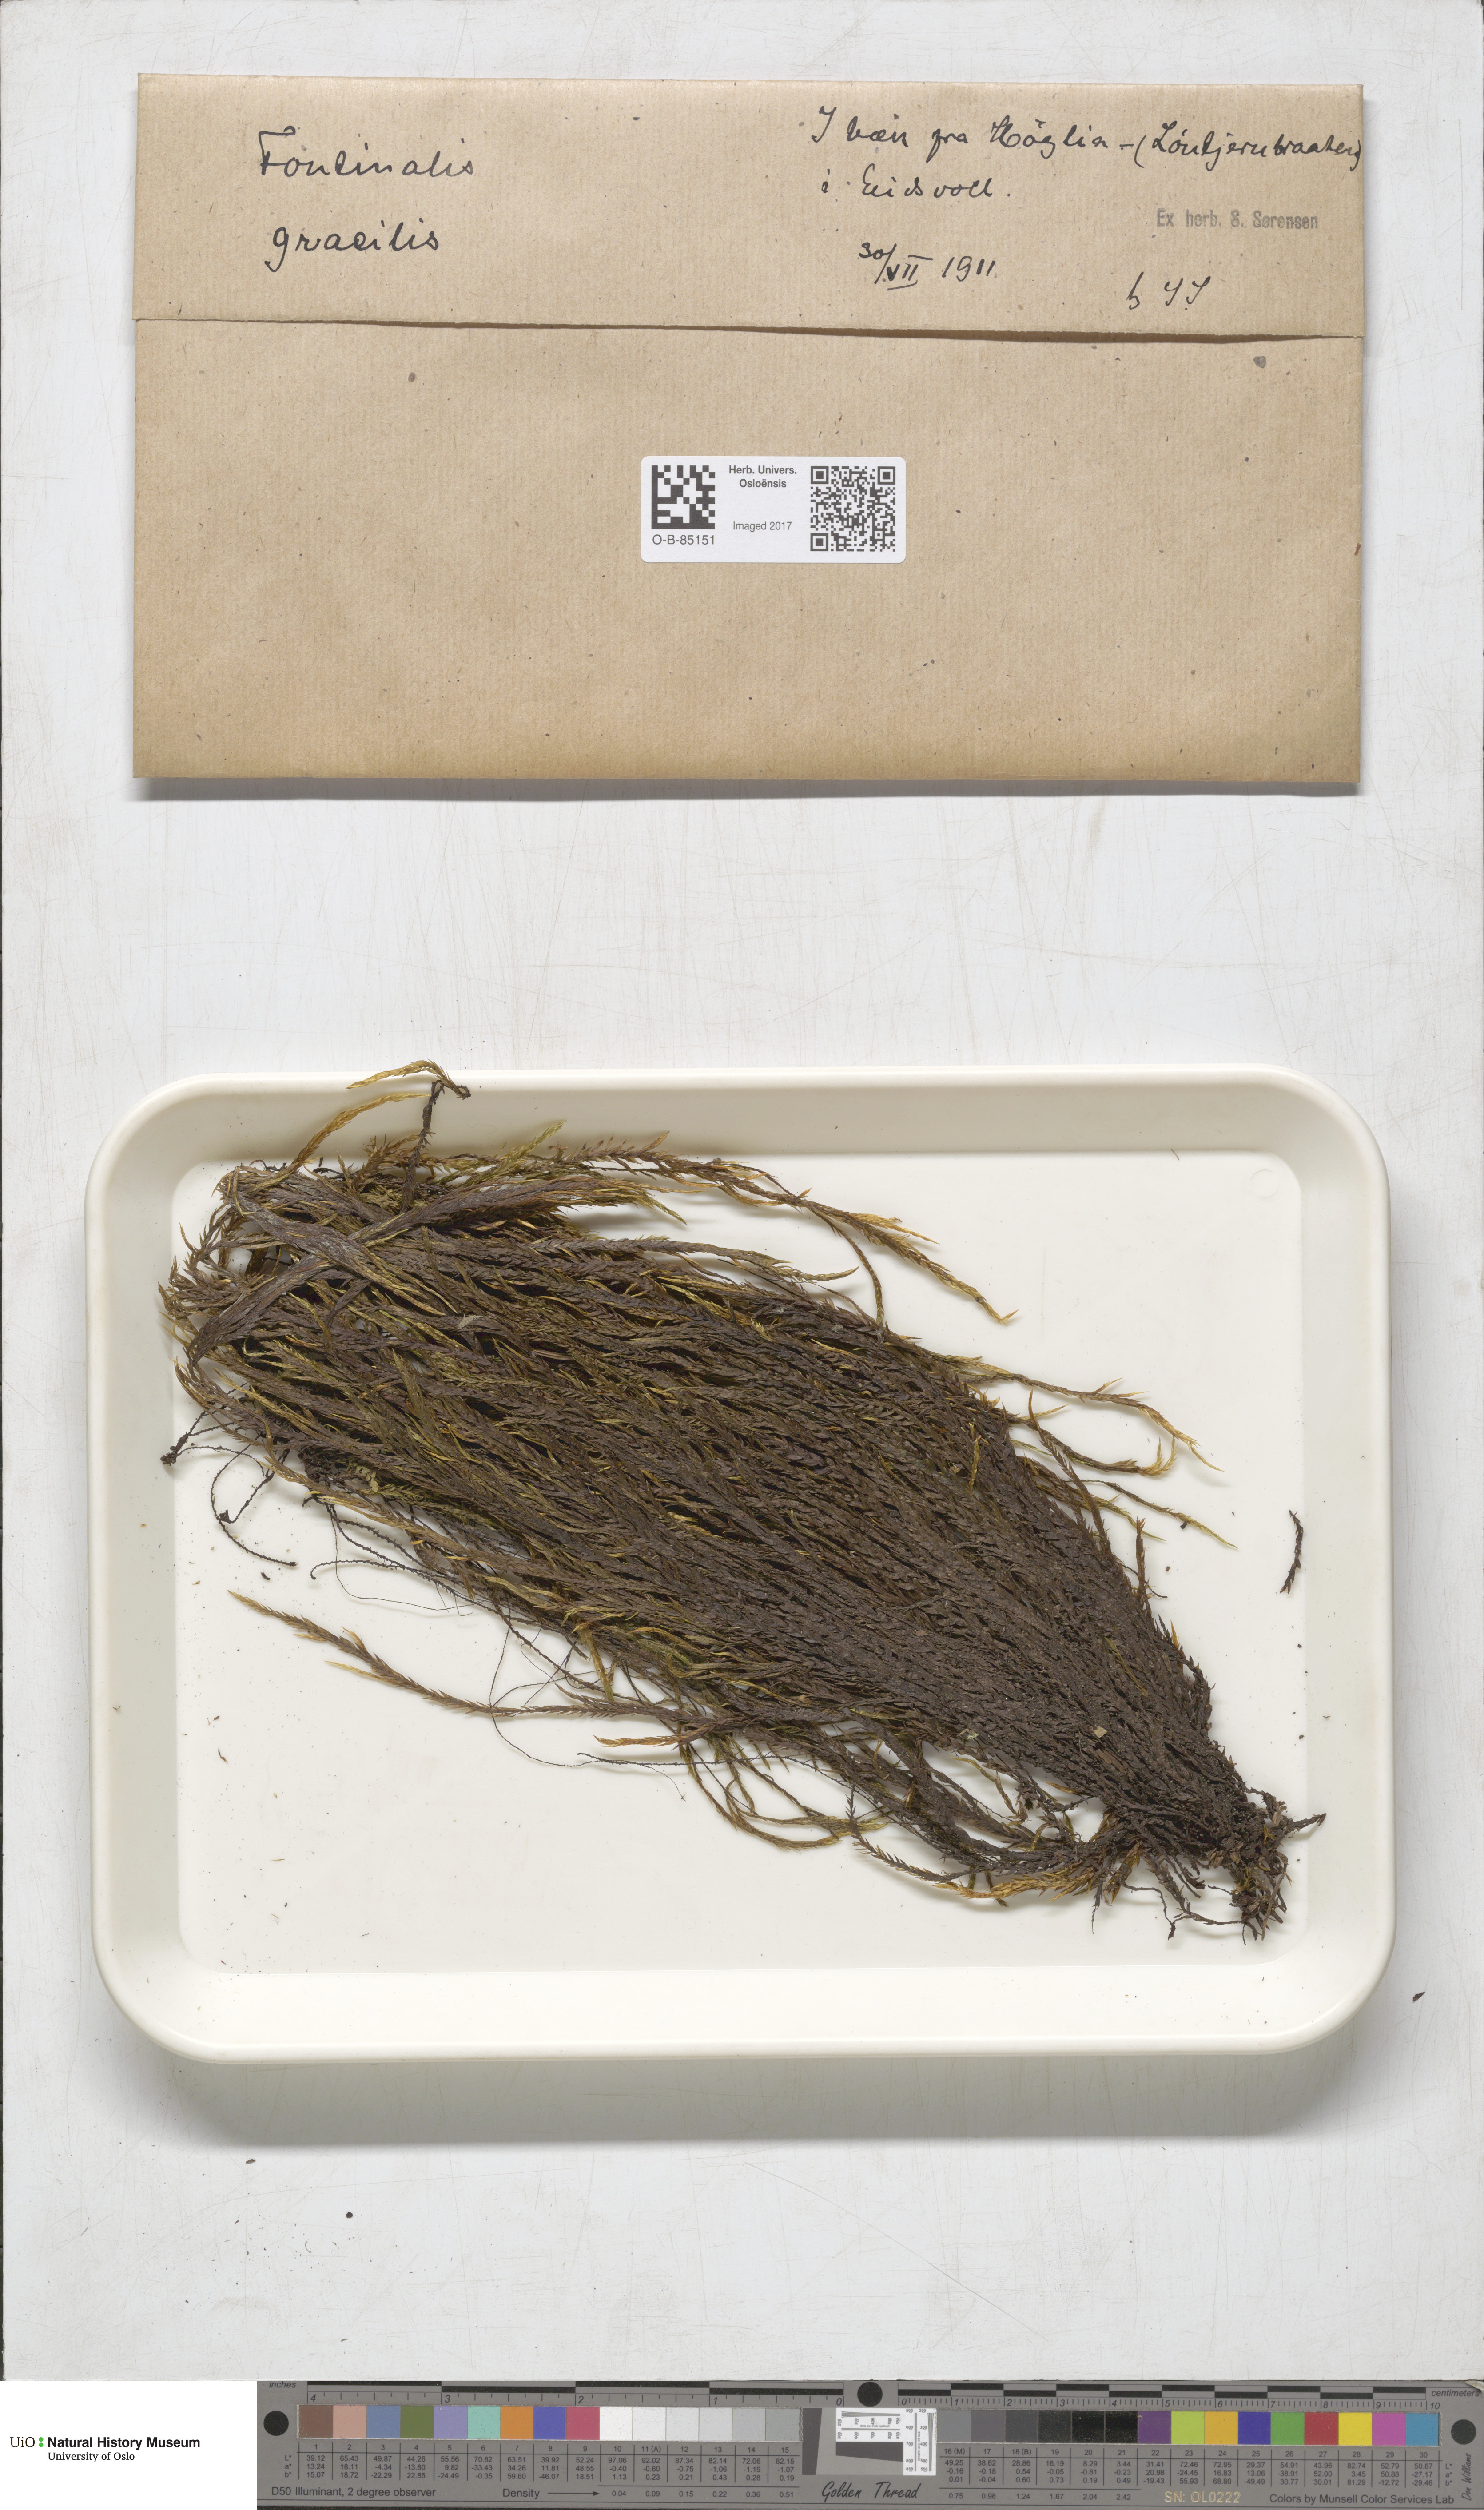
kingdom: Plantae
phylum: Bryophyta
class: Bryopsida
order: Hypnales
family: Fontinalaceae
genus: Fontinalis
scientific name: Fontinalis antipyretica
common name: Greater water-moss
